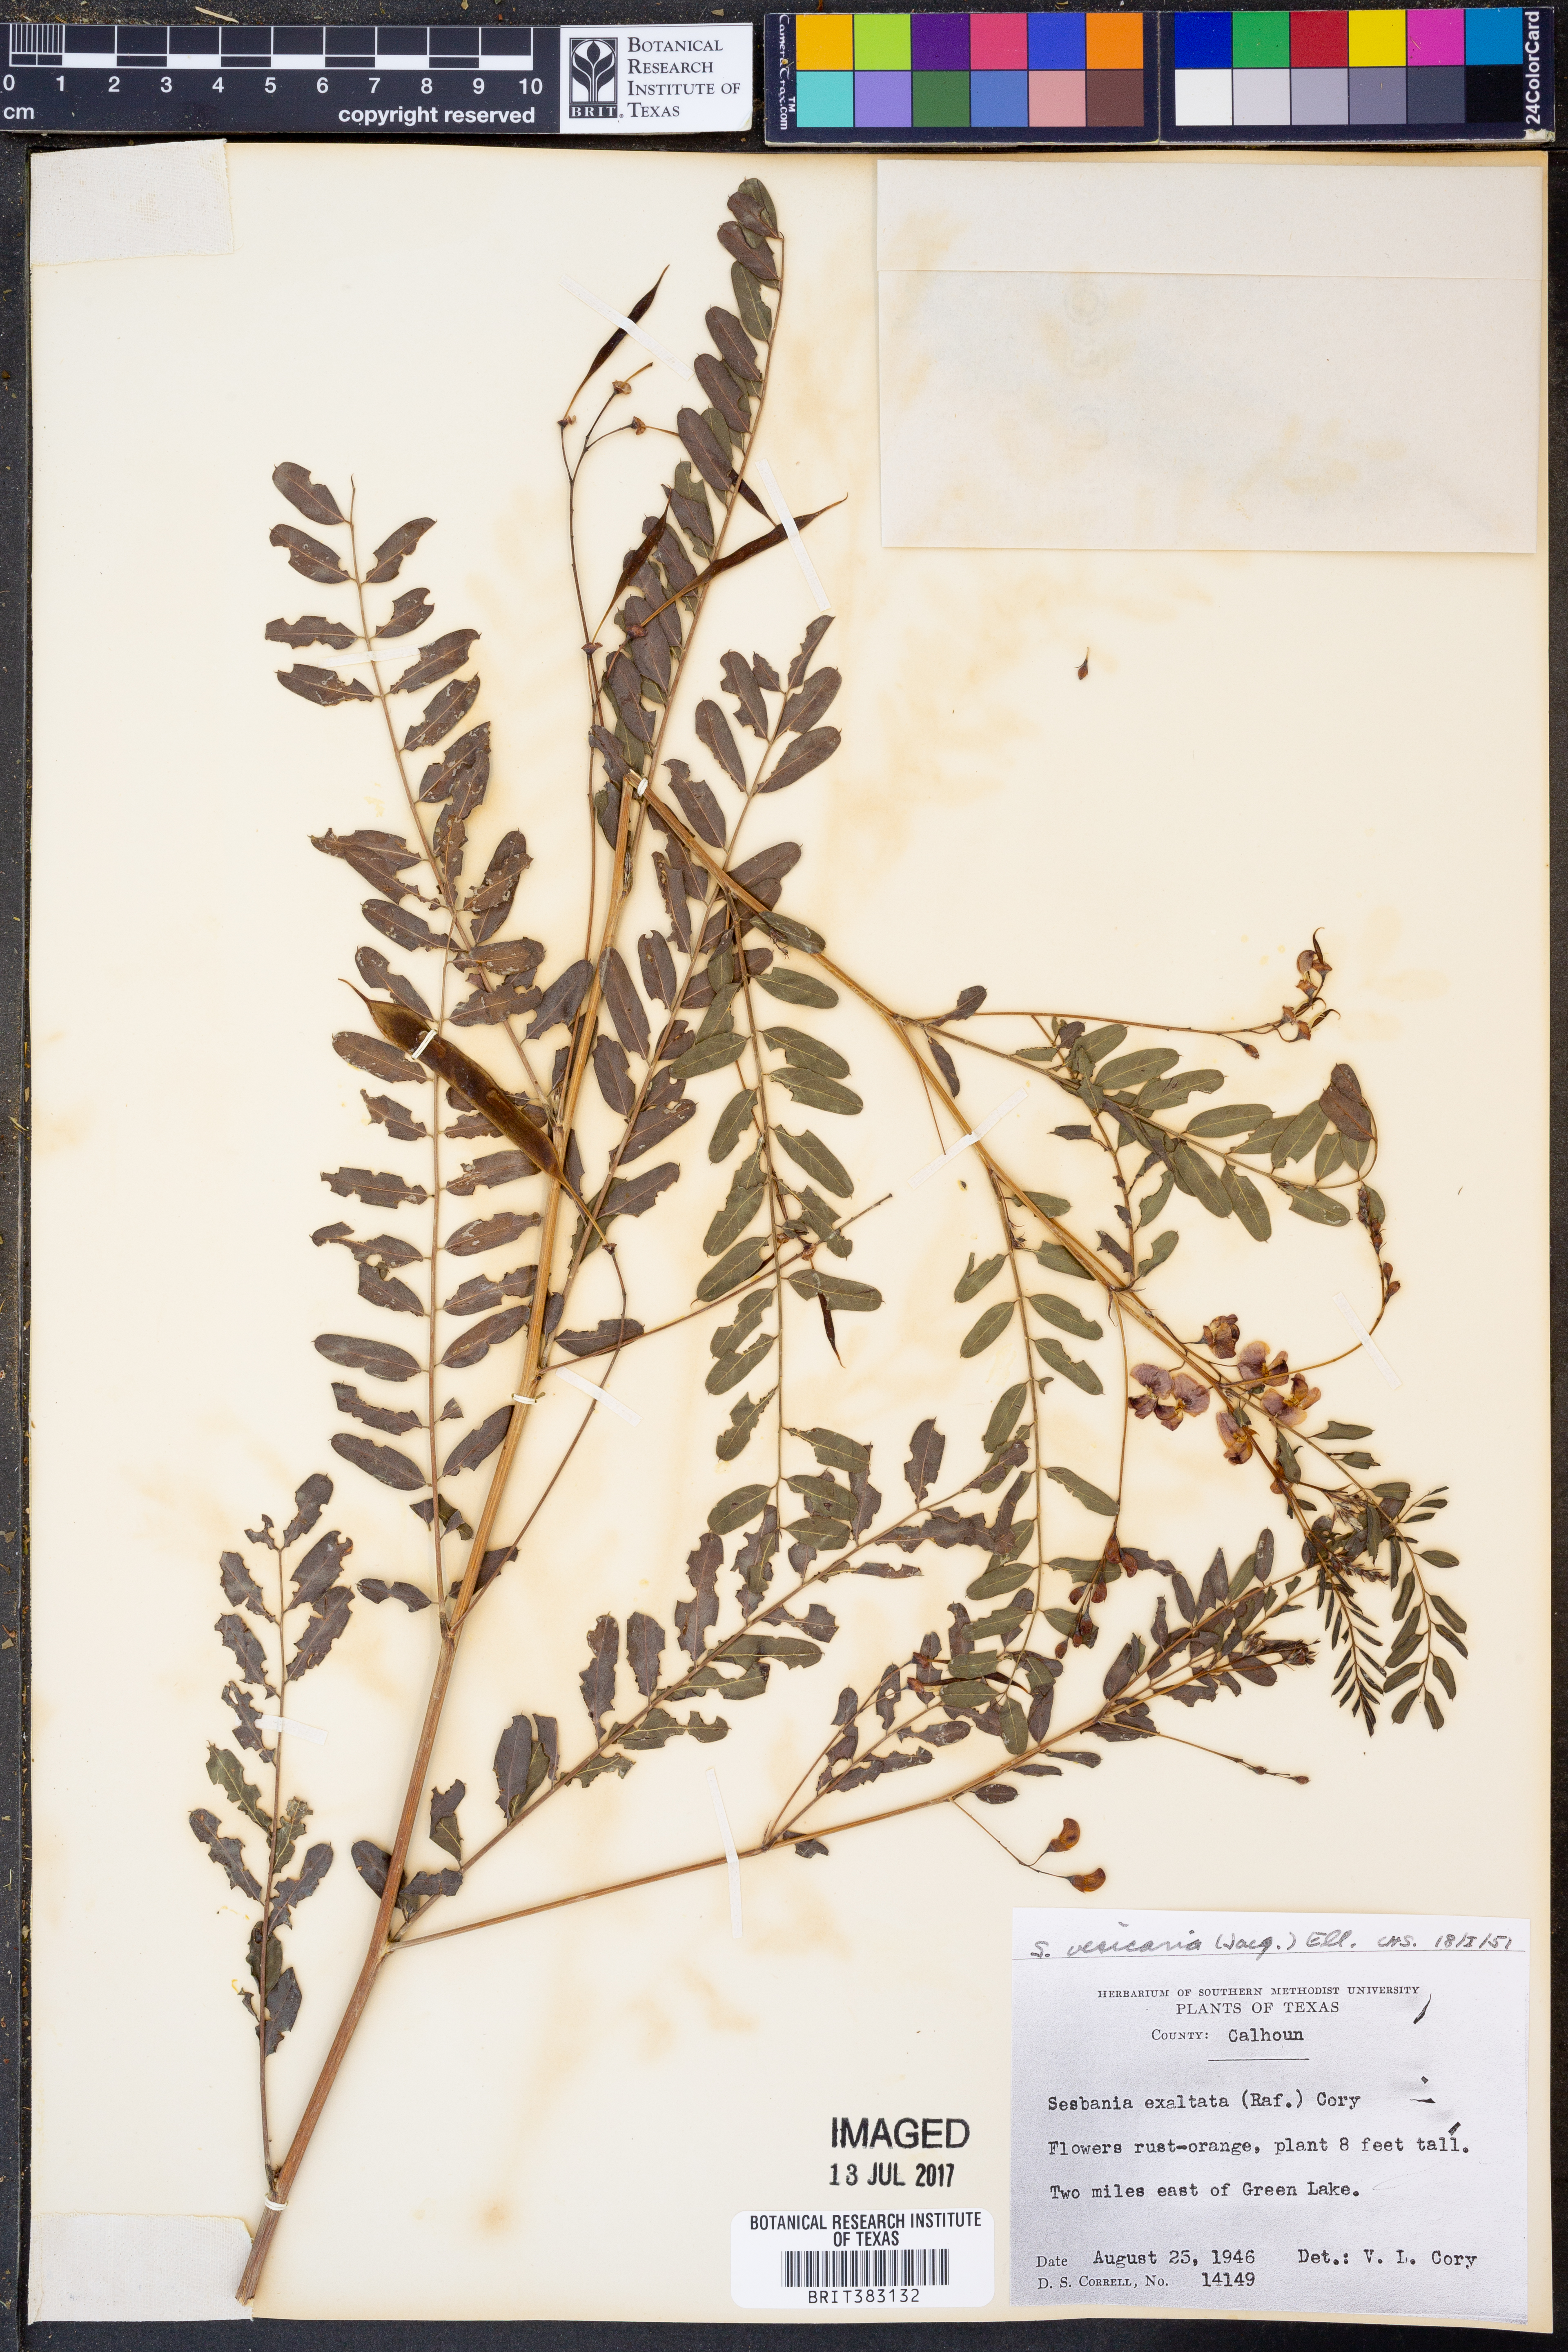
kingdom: Plantae
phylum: Tracheophyta
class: Magnoliopsida
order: Fabales
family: Fabaceae
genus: Sesbania
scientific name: Sesbania herbacea
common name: Bigpod sesbania
